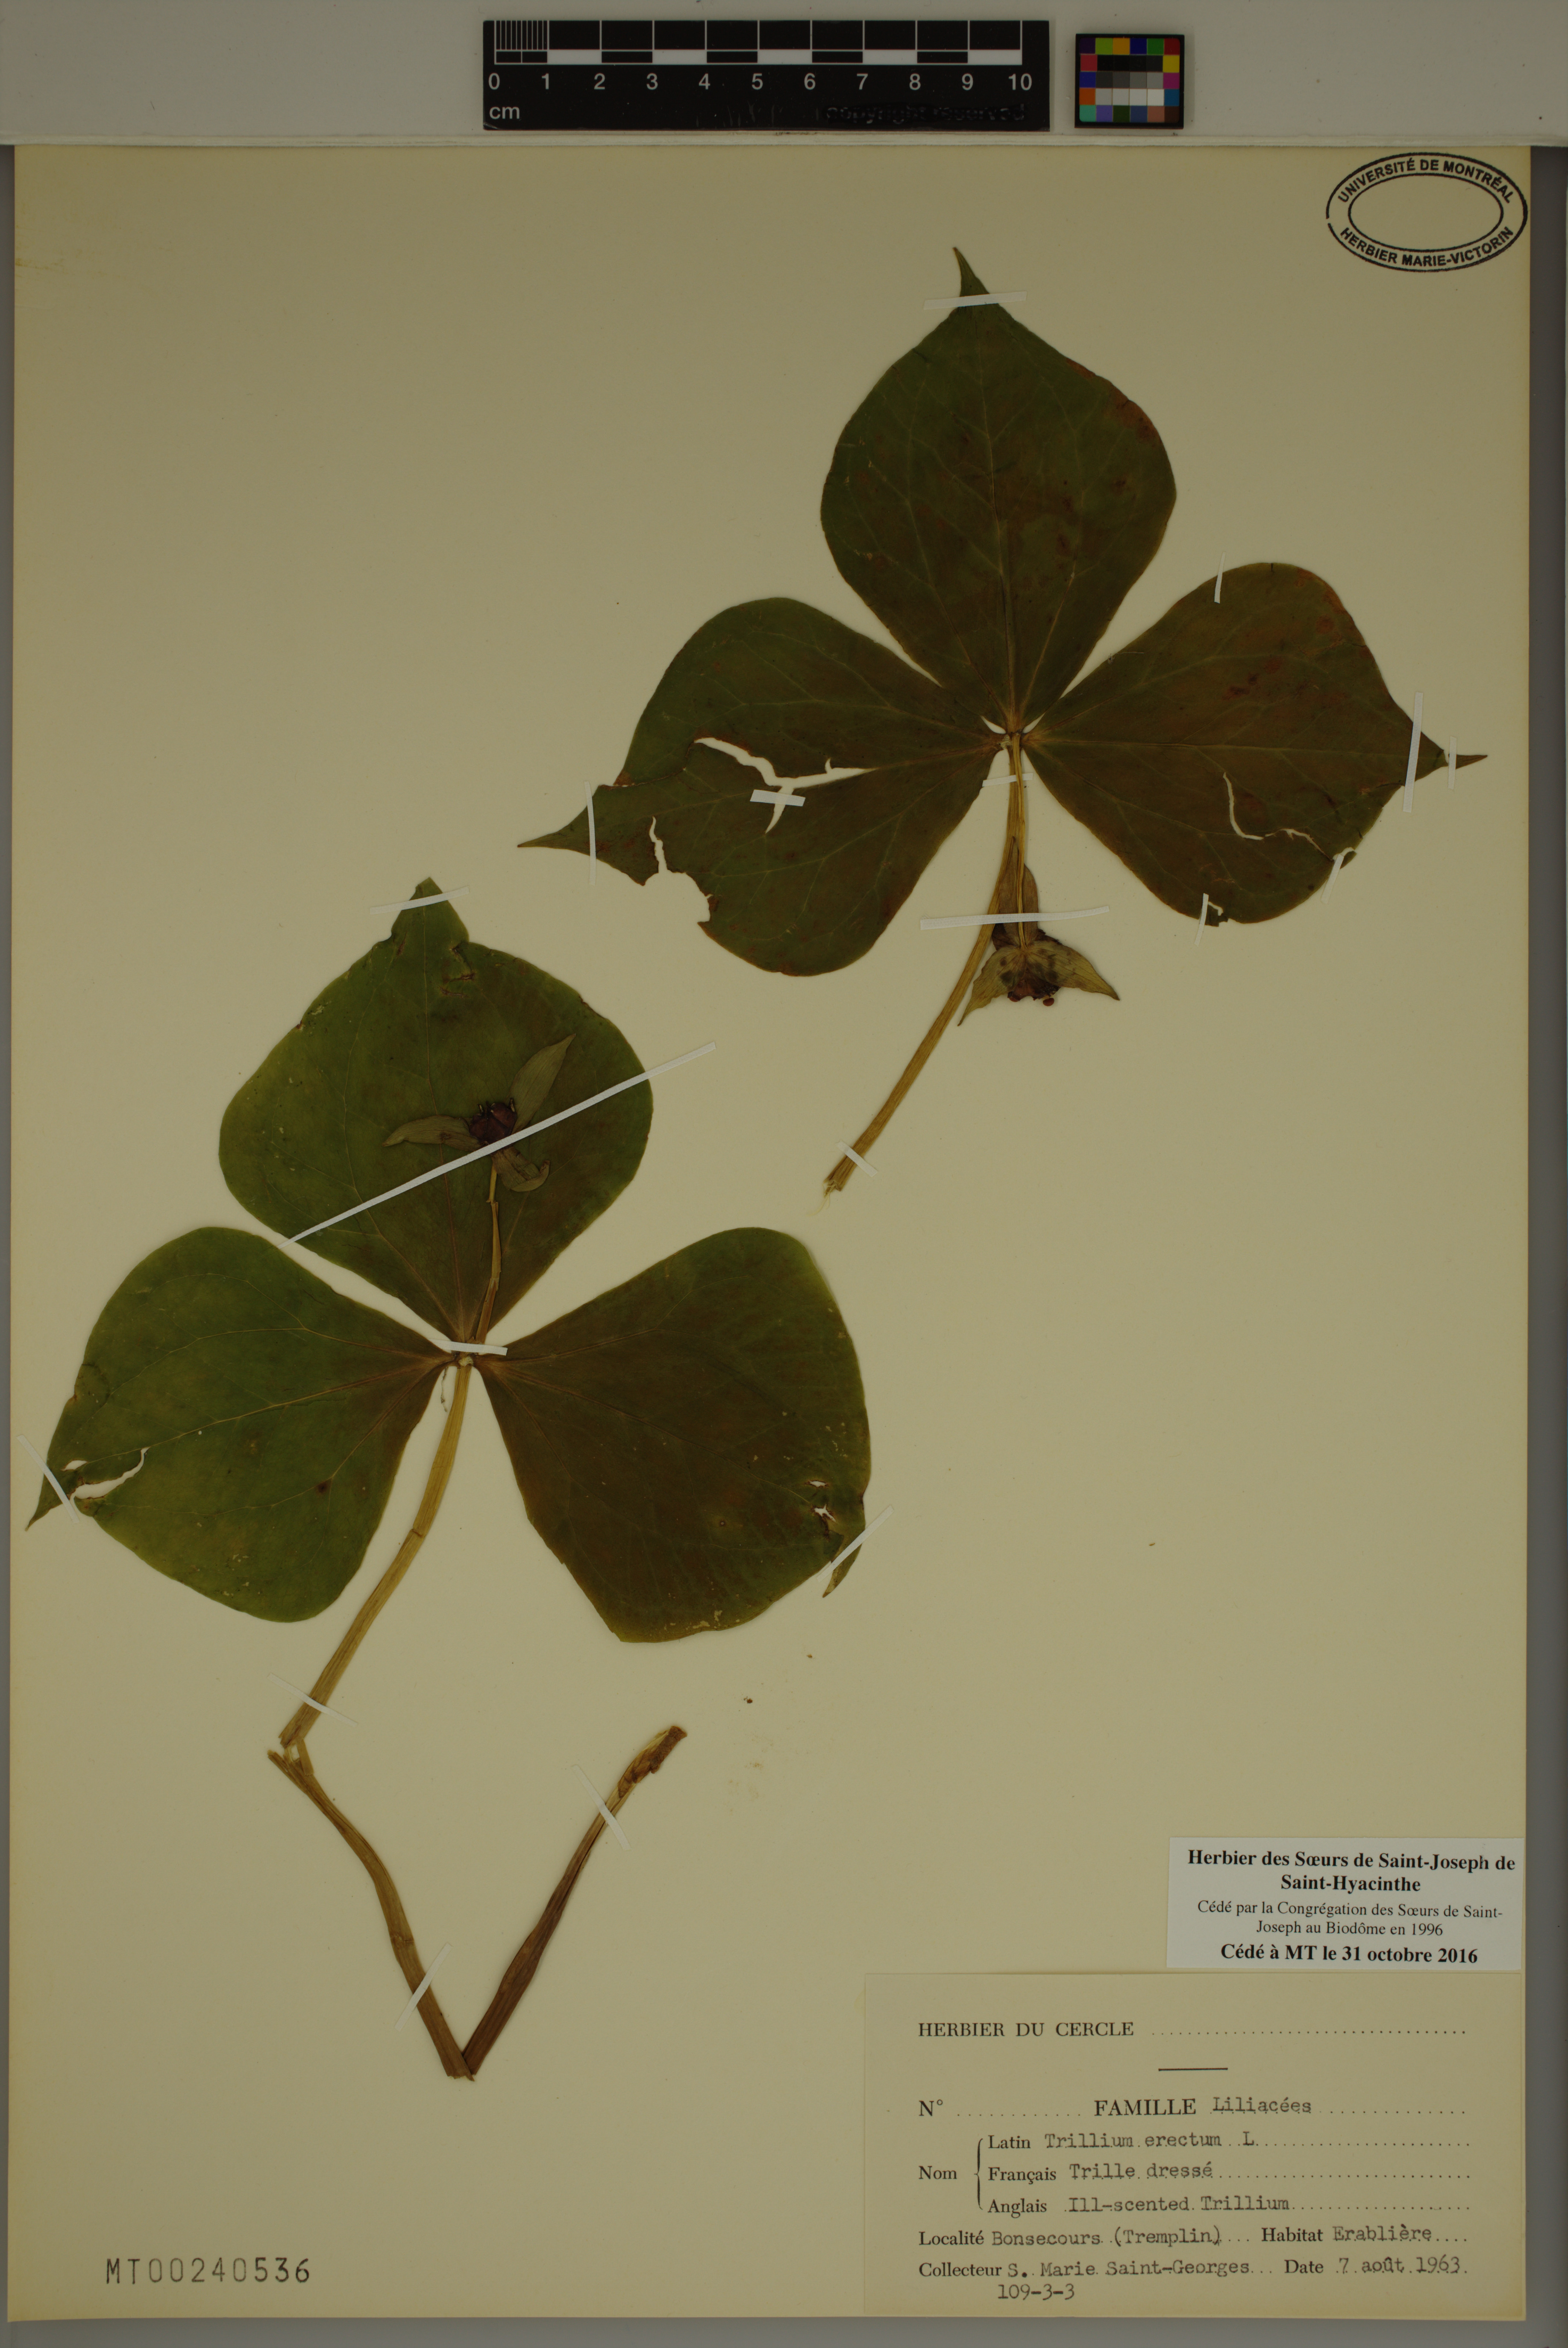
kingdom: Plantae
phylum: Tracheophyta
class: Liliopsida
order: Liliales
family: Melanthiaceae
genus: Trillium
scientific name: Trillium erectum
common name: Purple trillium
